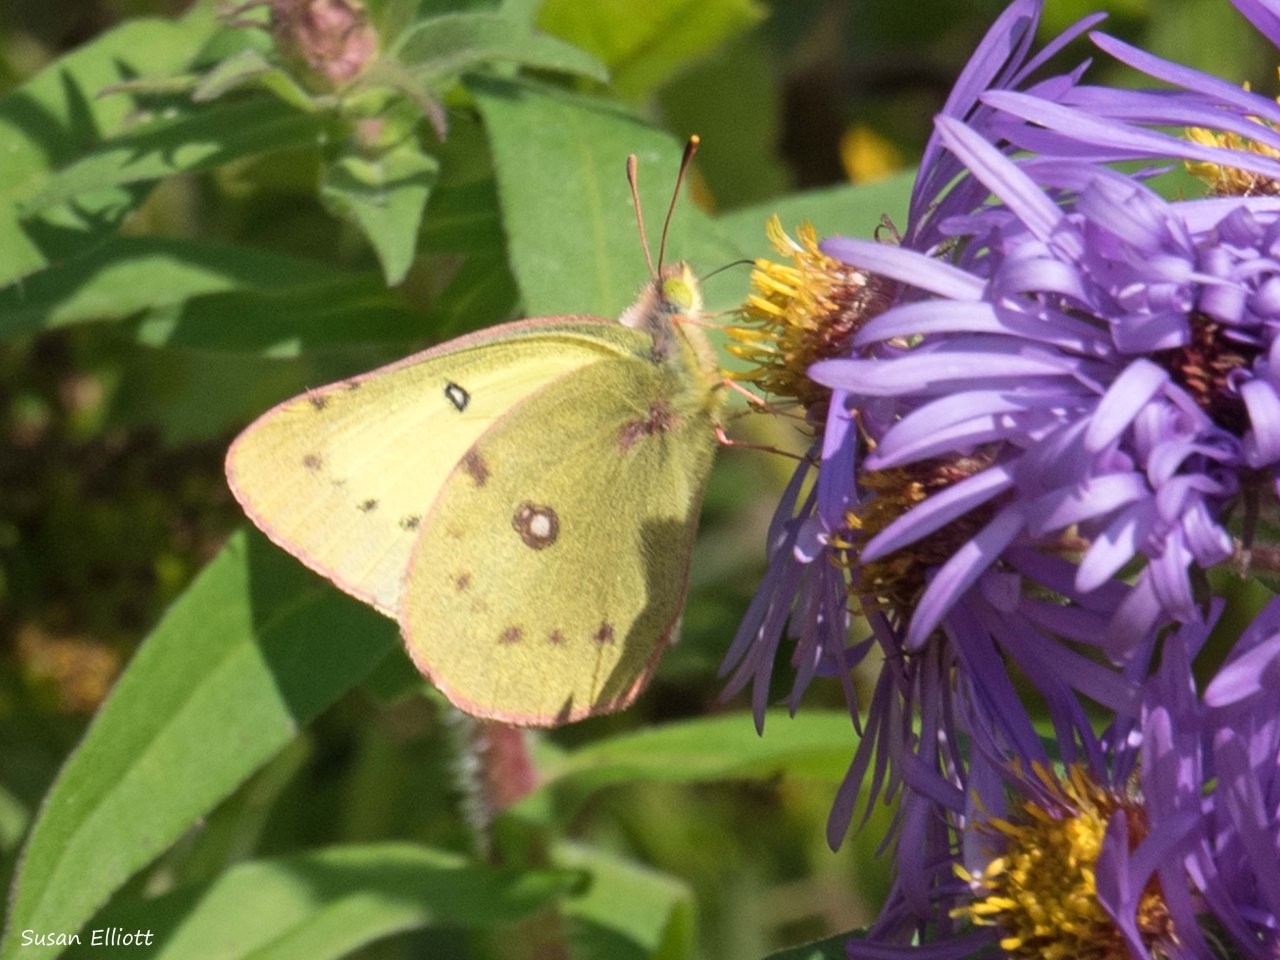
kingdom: Animalia
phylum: Arthropoda
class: Insecta
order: Lepidoptera
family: Pieridae
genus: Colias
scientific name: Colias philodice
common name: Clouded Sulphur
